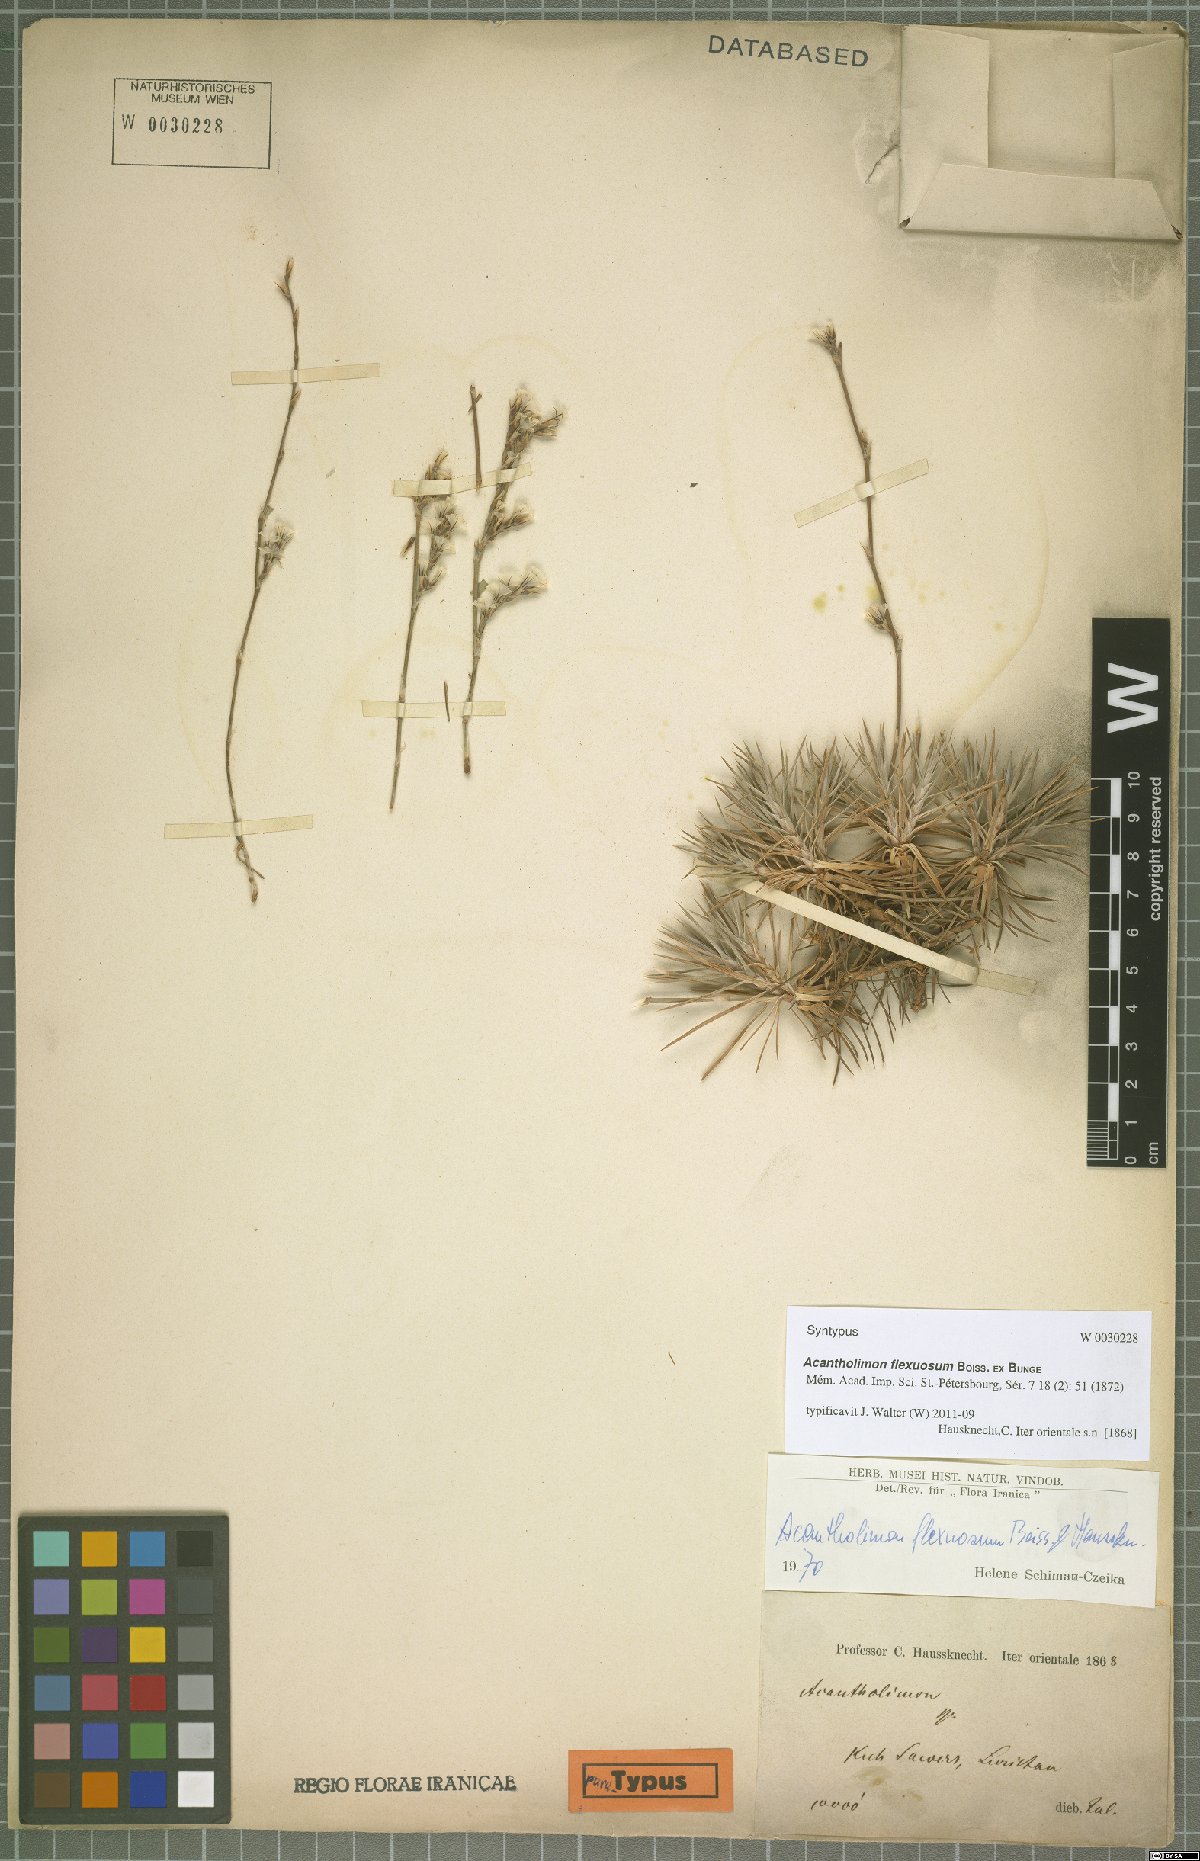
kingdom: Plantae
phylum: Tracheophyta
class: Magnoliopsida
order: Caryophyllales
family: Plumbaginaceae
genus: Acantholimon
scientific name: Acantholimon flexuosum
